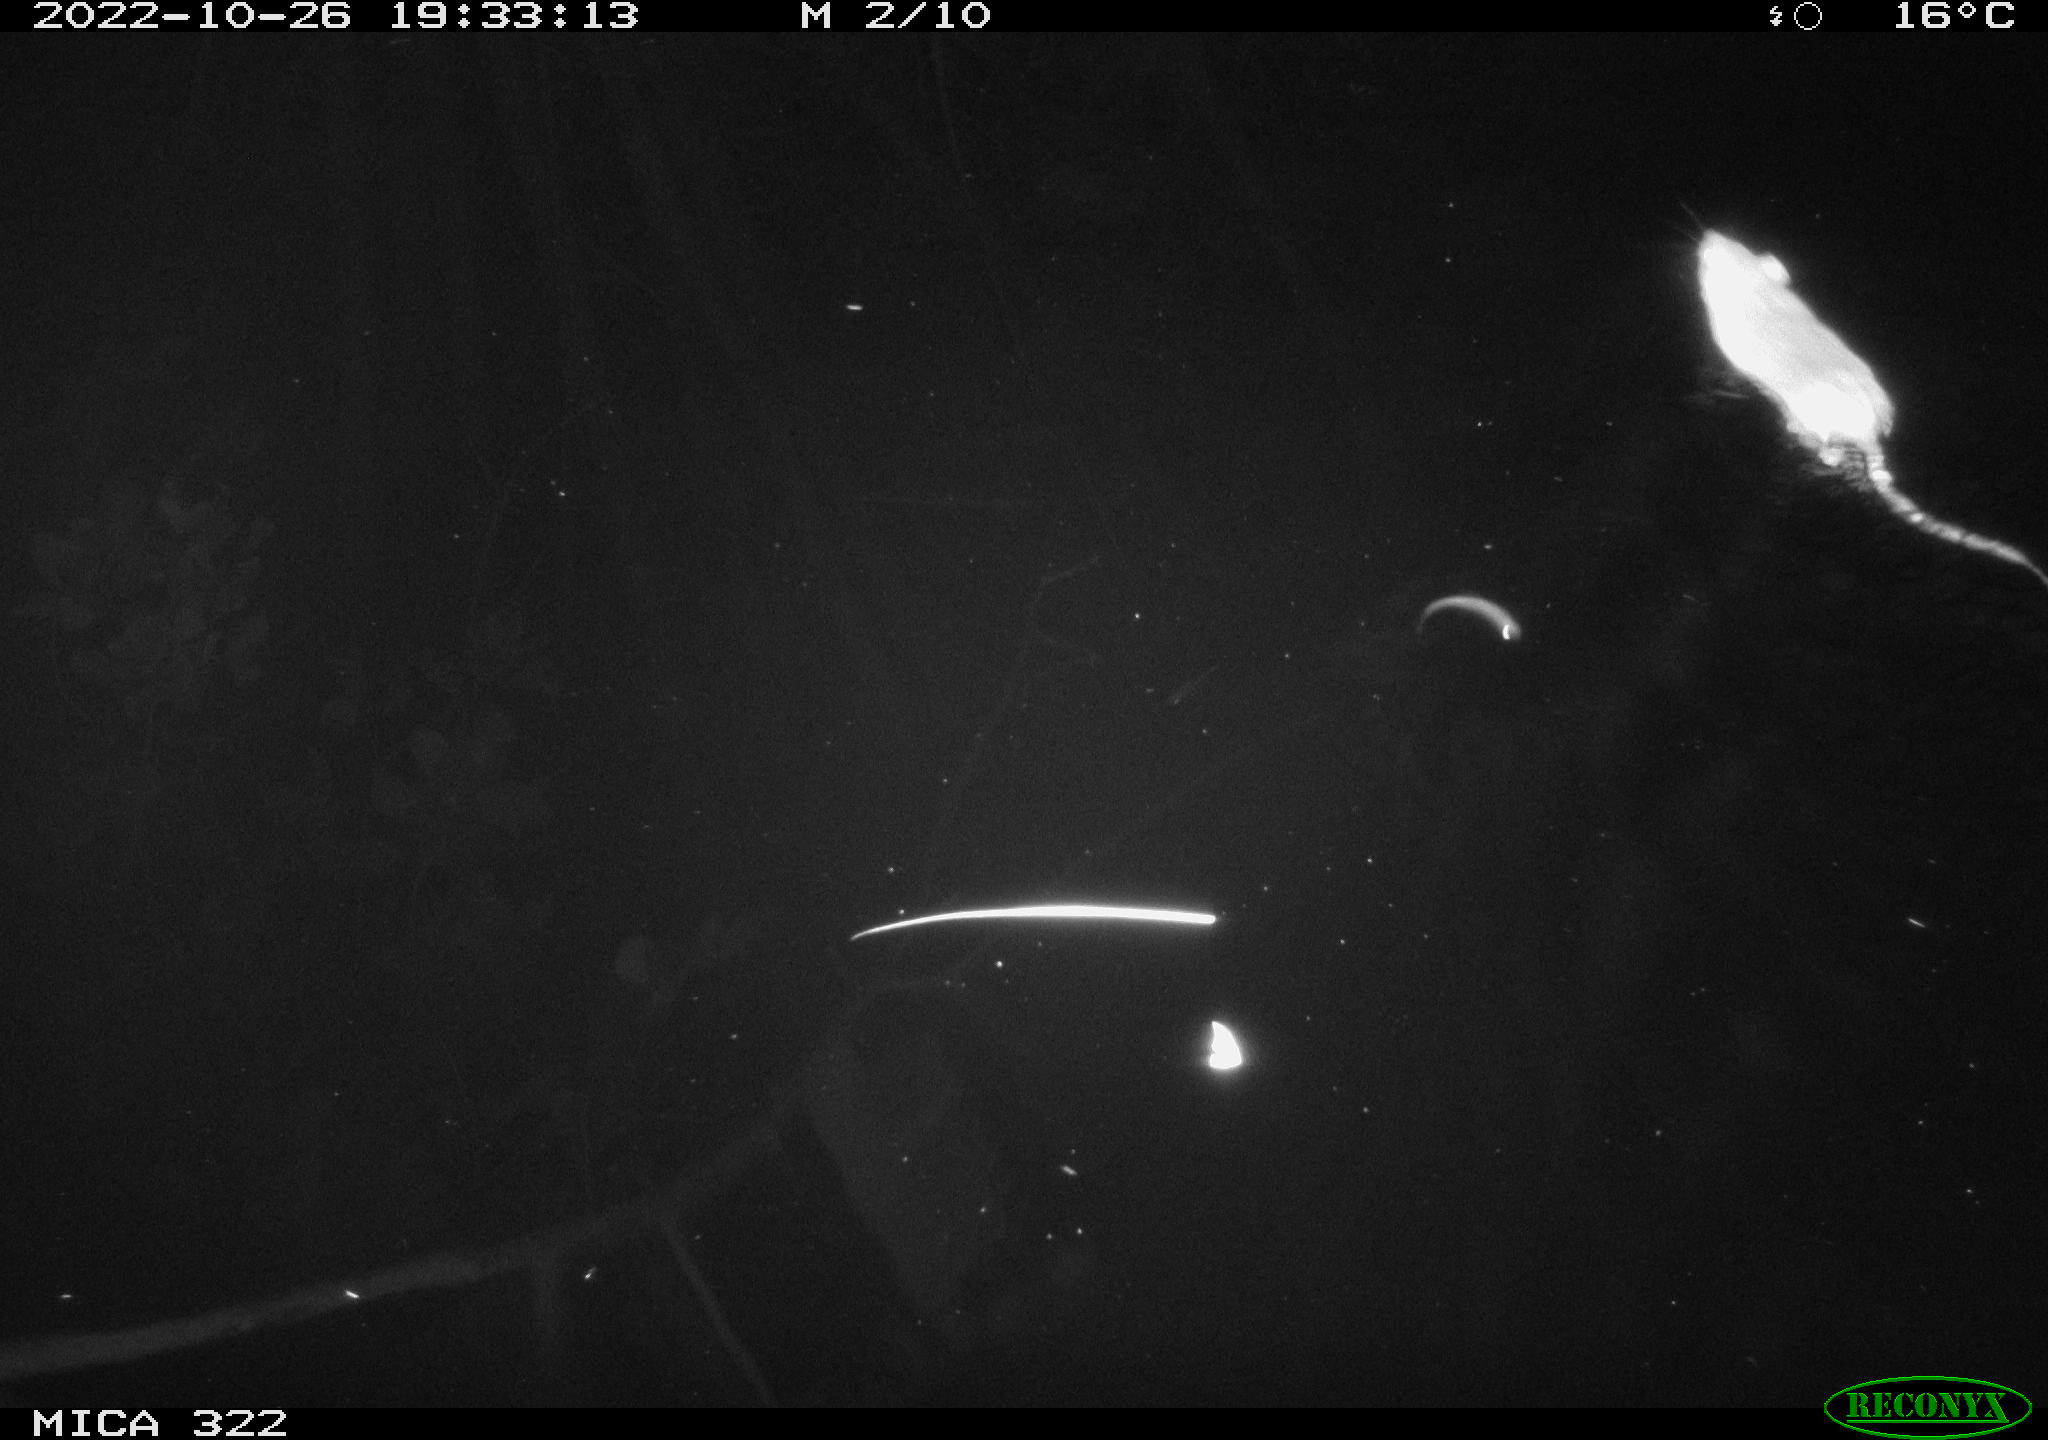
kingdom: Animalia
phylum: Chordata
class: Mammalia
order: Rodentia
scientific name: Rodentia
